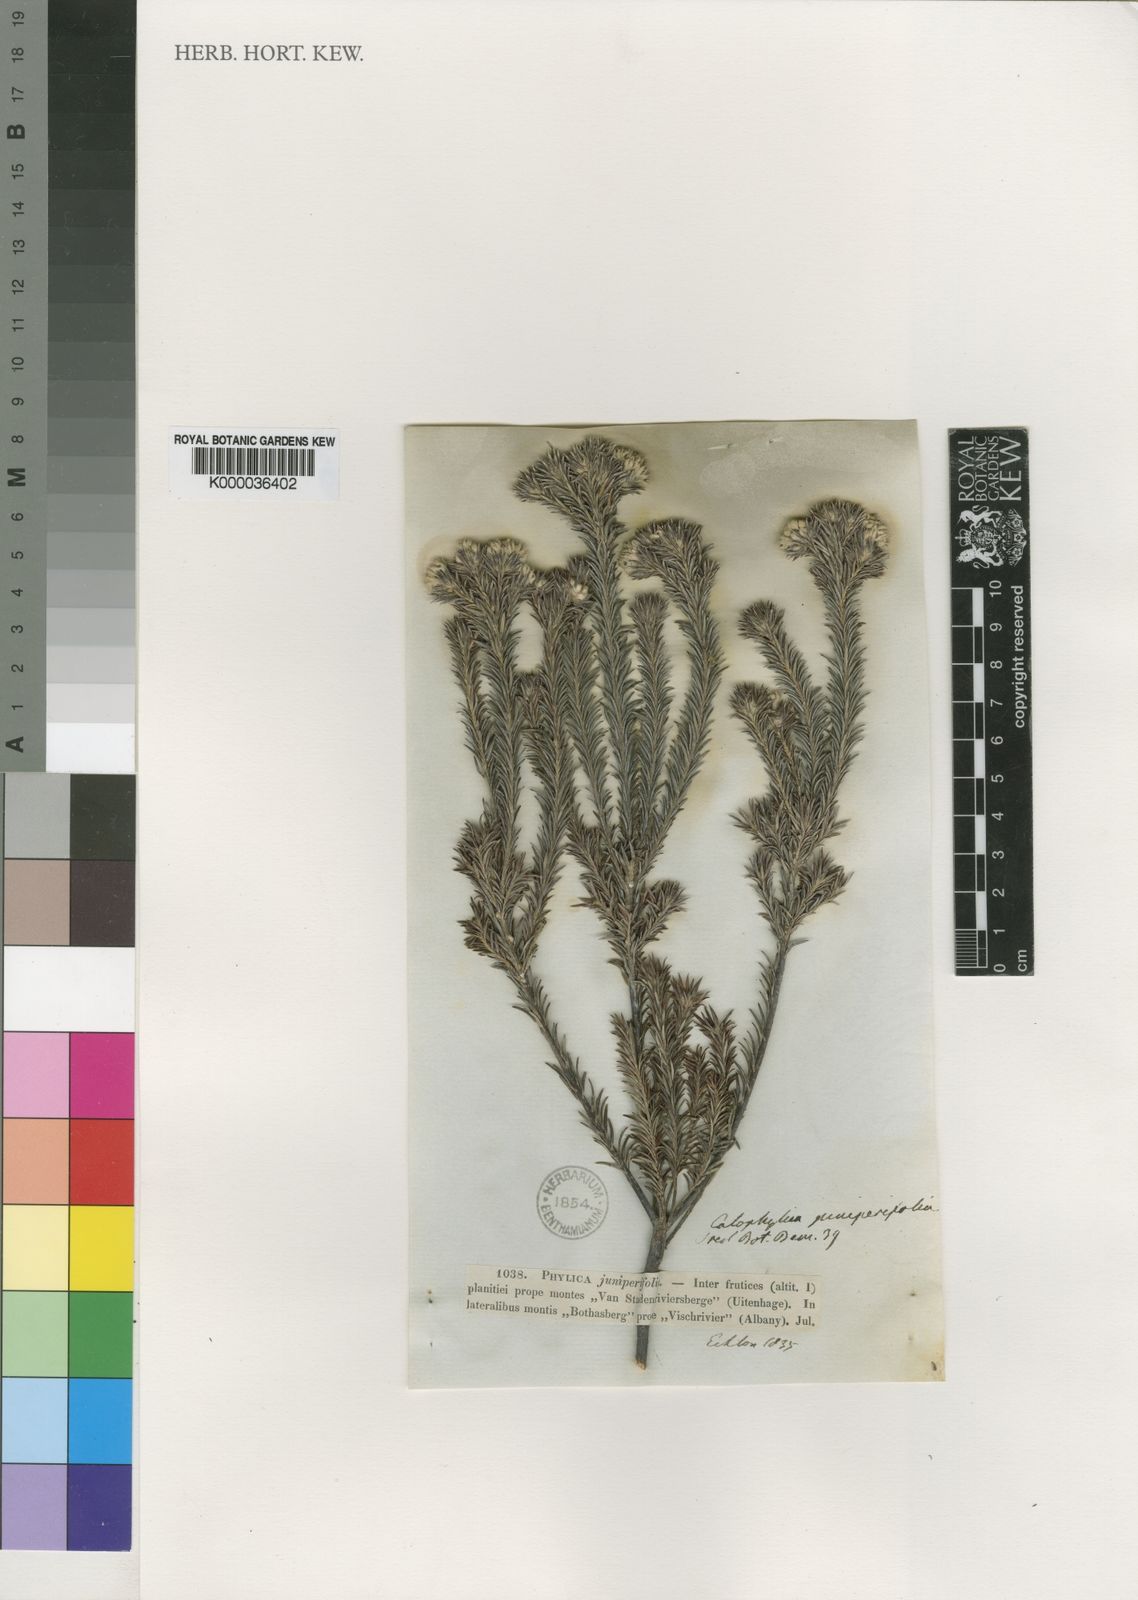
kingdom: Plantae
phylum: Tracheophyta
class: Magnoliopsida
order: Rosales
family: Rhamnaceae
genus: Phylica
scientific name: Phylica gnidioides
